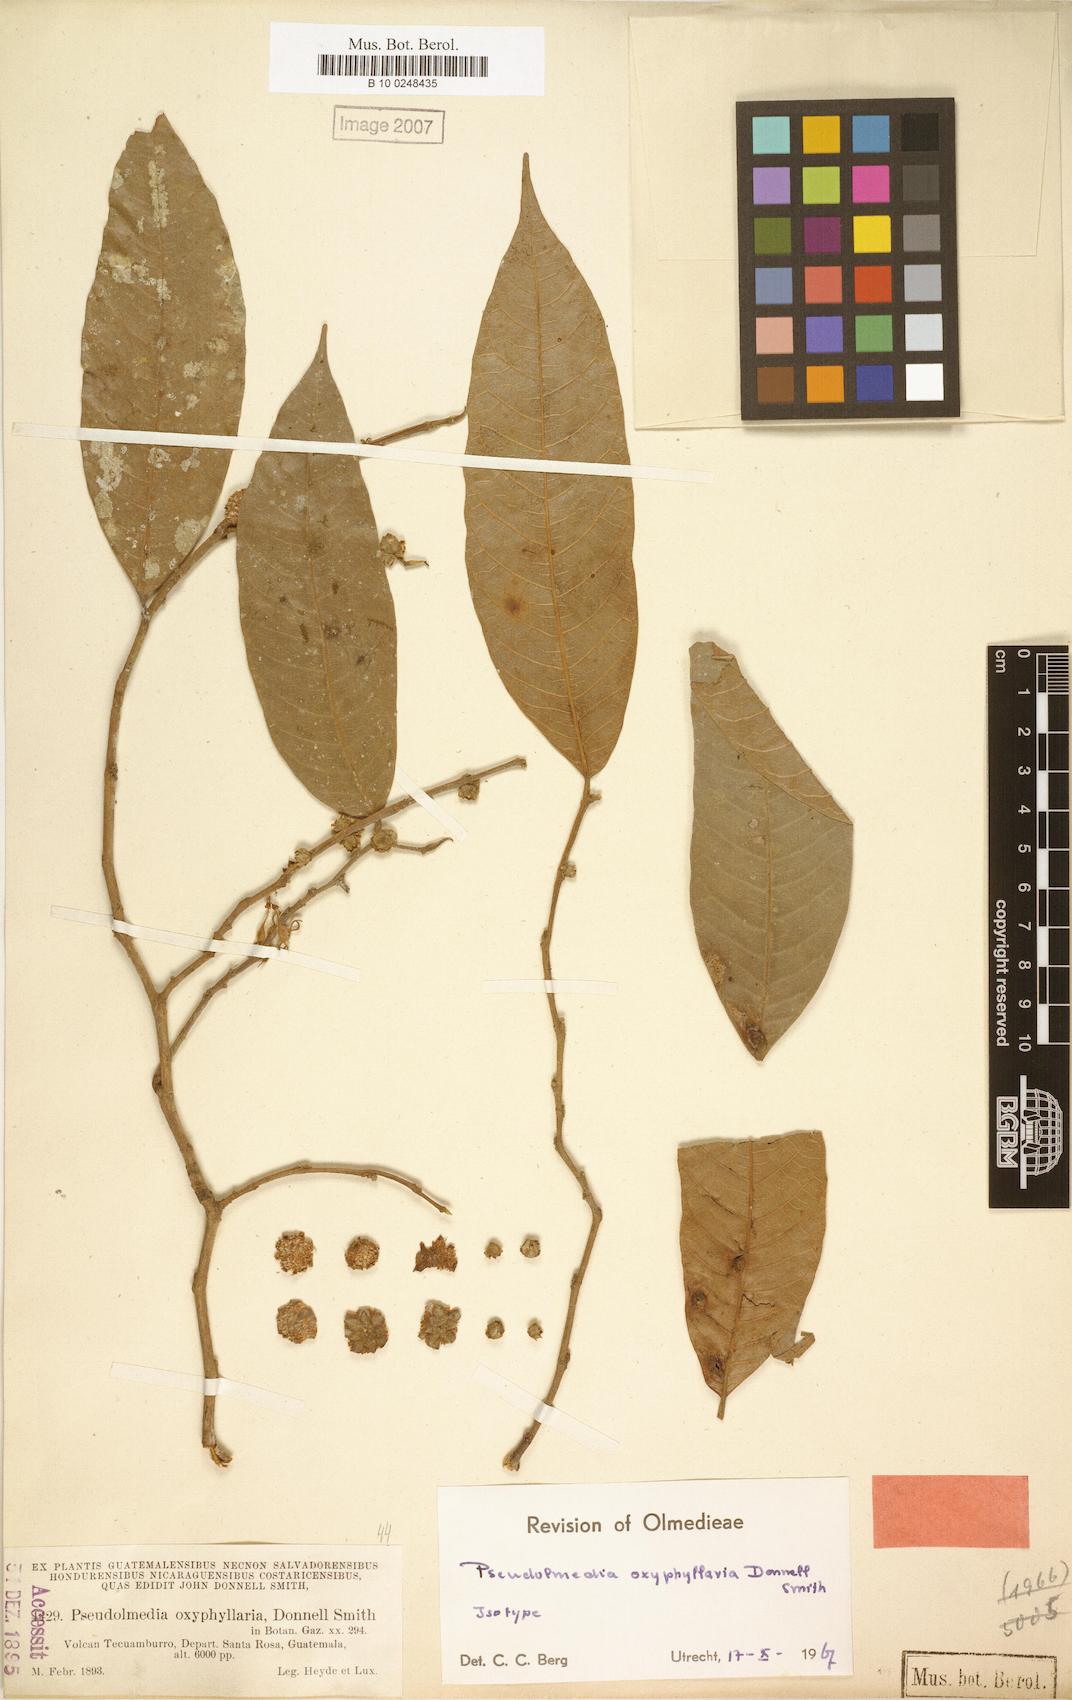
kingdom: Plantae
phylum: Tracheophyta
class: Magnoliopsida
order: Rosales
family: Moraceae
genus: Pseudolmedia
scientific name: Pseudolmedia glabrata
